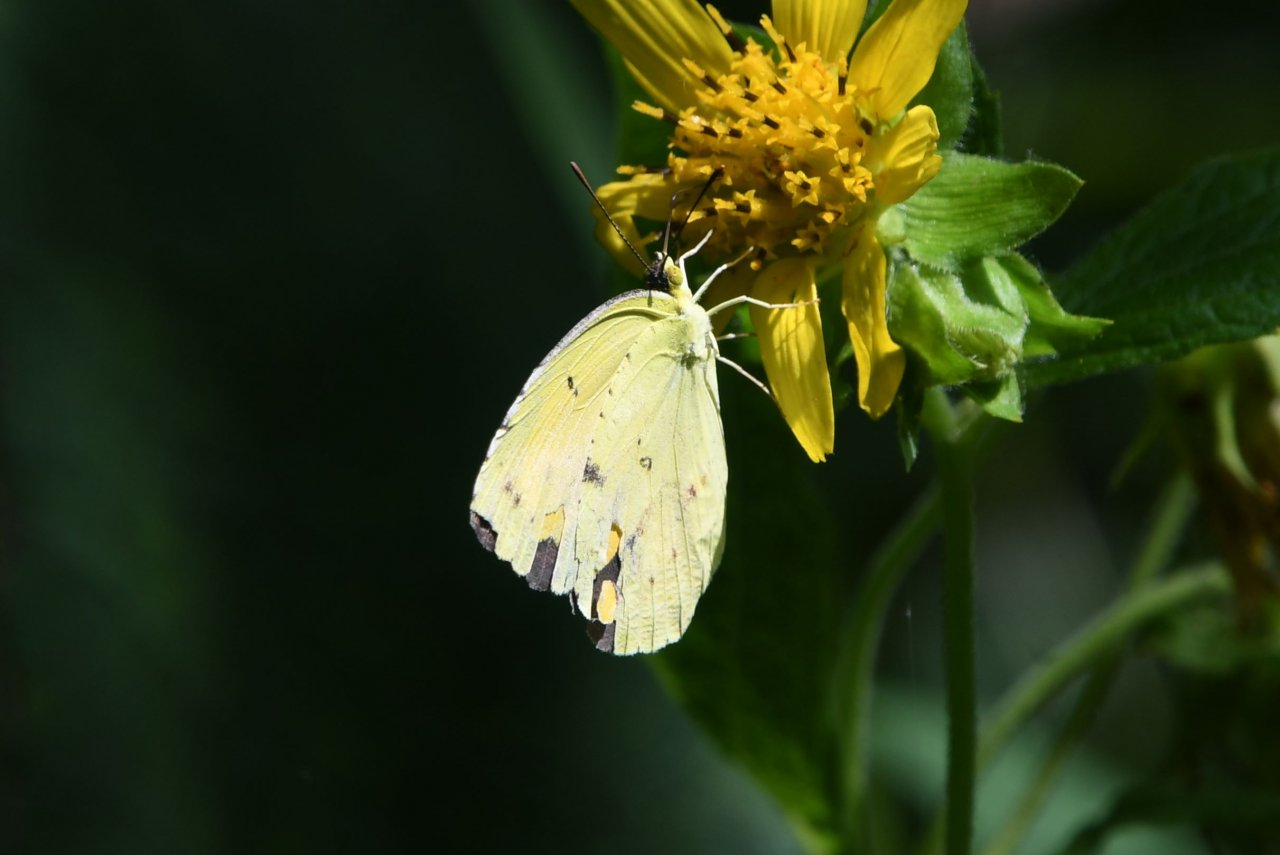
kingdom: Animalia
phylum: Arthropoda
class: Insecta
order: Lepidoptera
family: Pieridae
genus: Colias
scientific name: Colias
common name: Clouded Yellows
